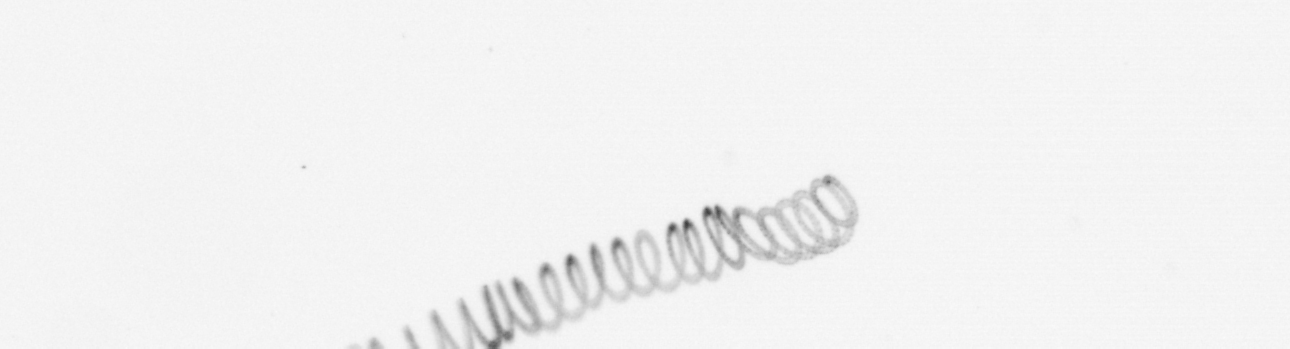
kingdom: Chromista
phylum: Ochrophyta
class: Bacillariophyceae
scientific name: Bacillariophyceae
